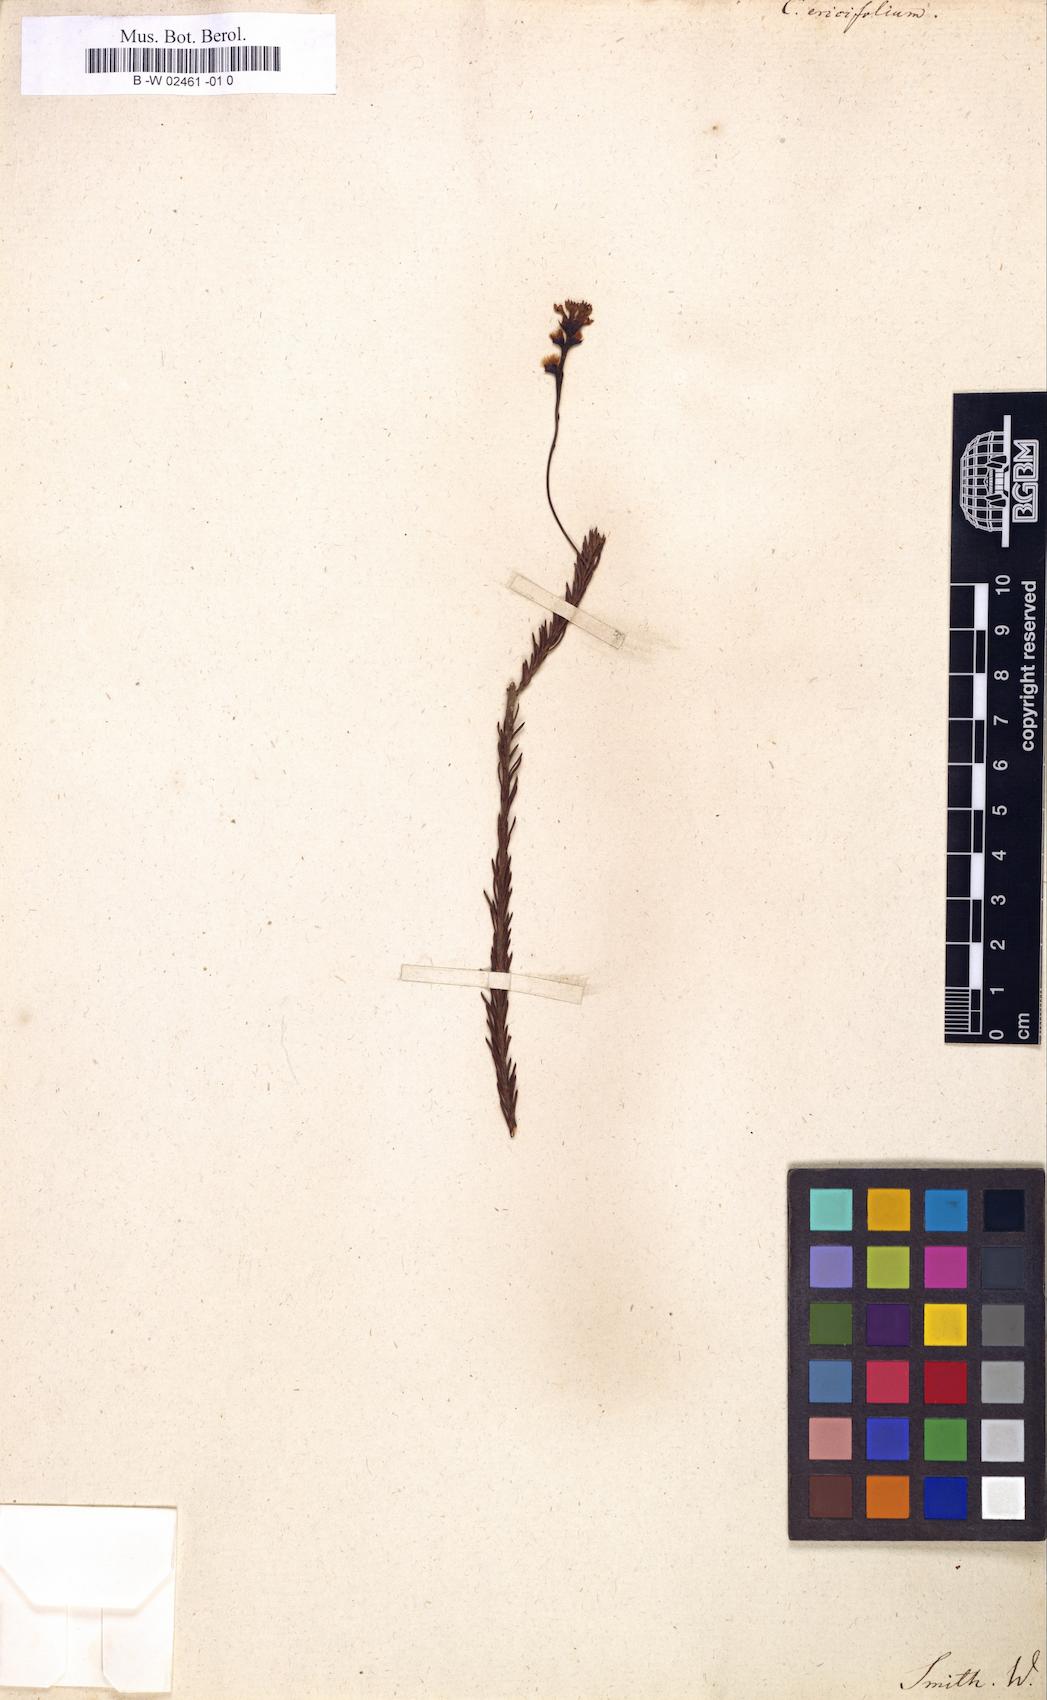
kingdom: Plantae
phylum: Tracheophyta
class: Magnoliopsida
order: Proteales
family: Proteaceae
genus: Conospermum
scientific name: Conospermum ericifolium
